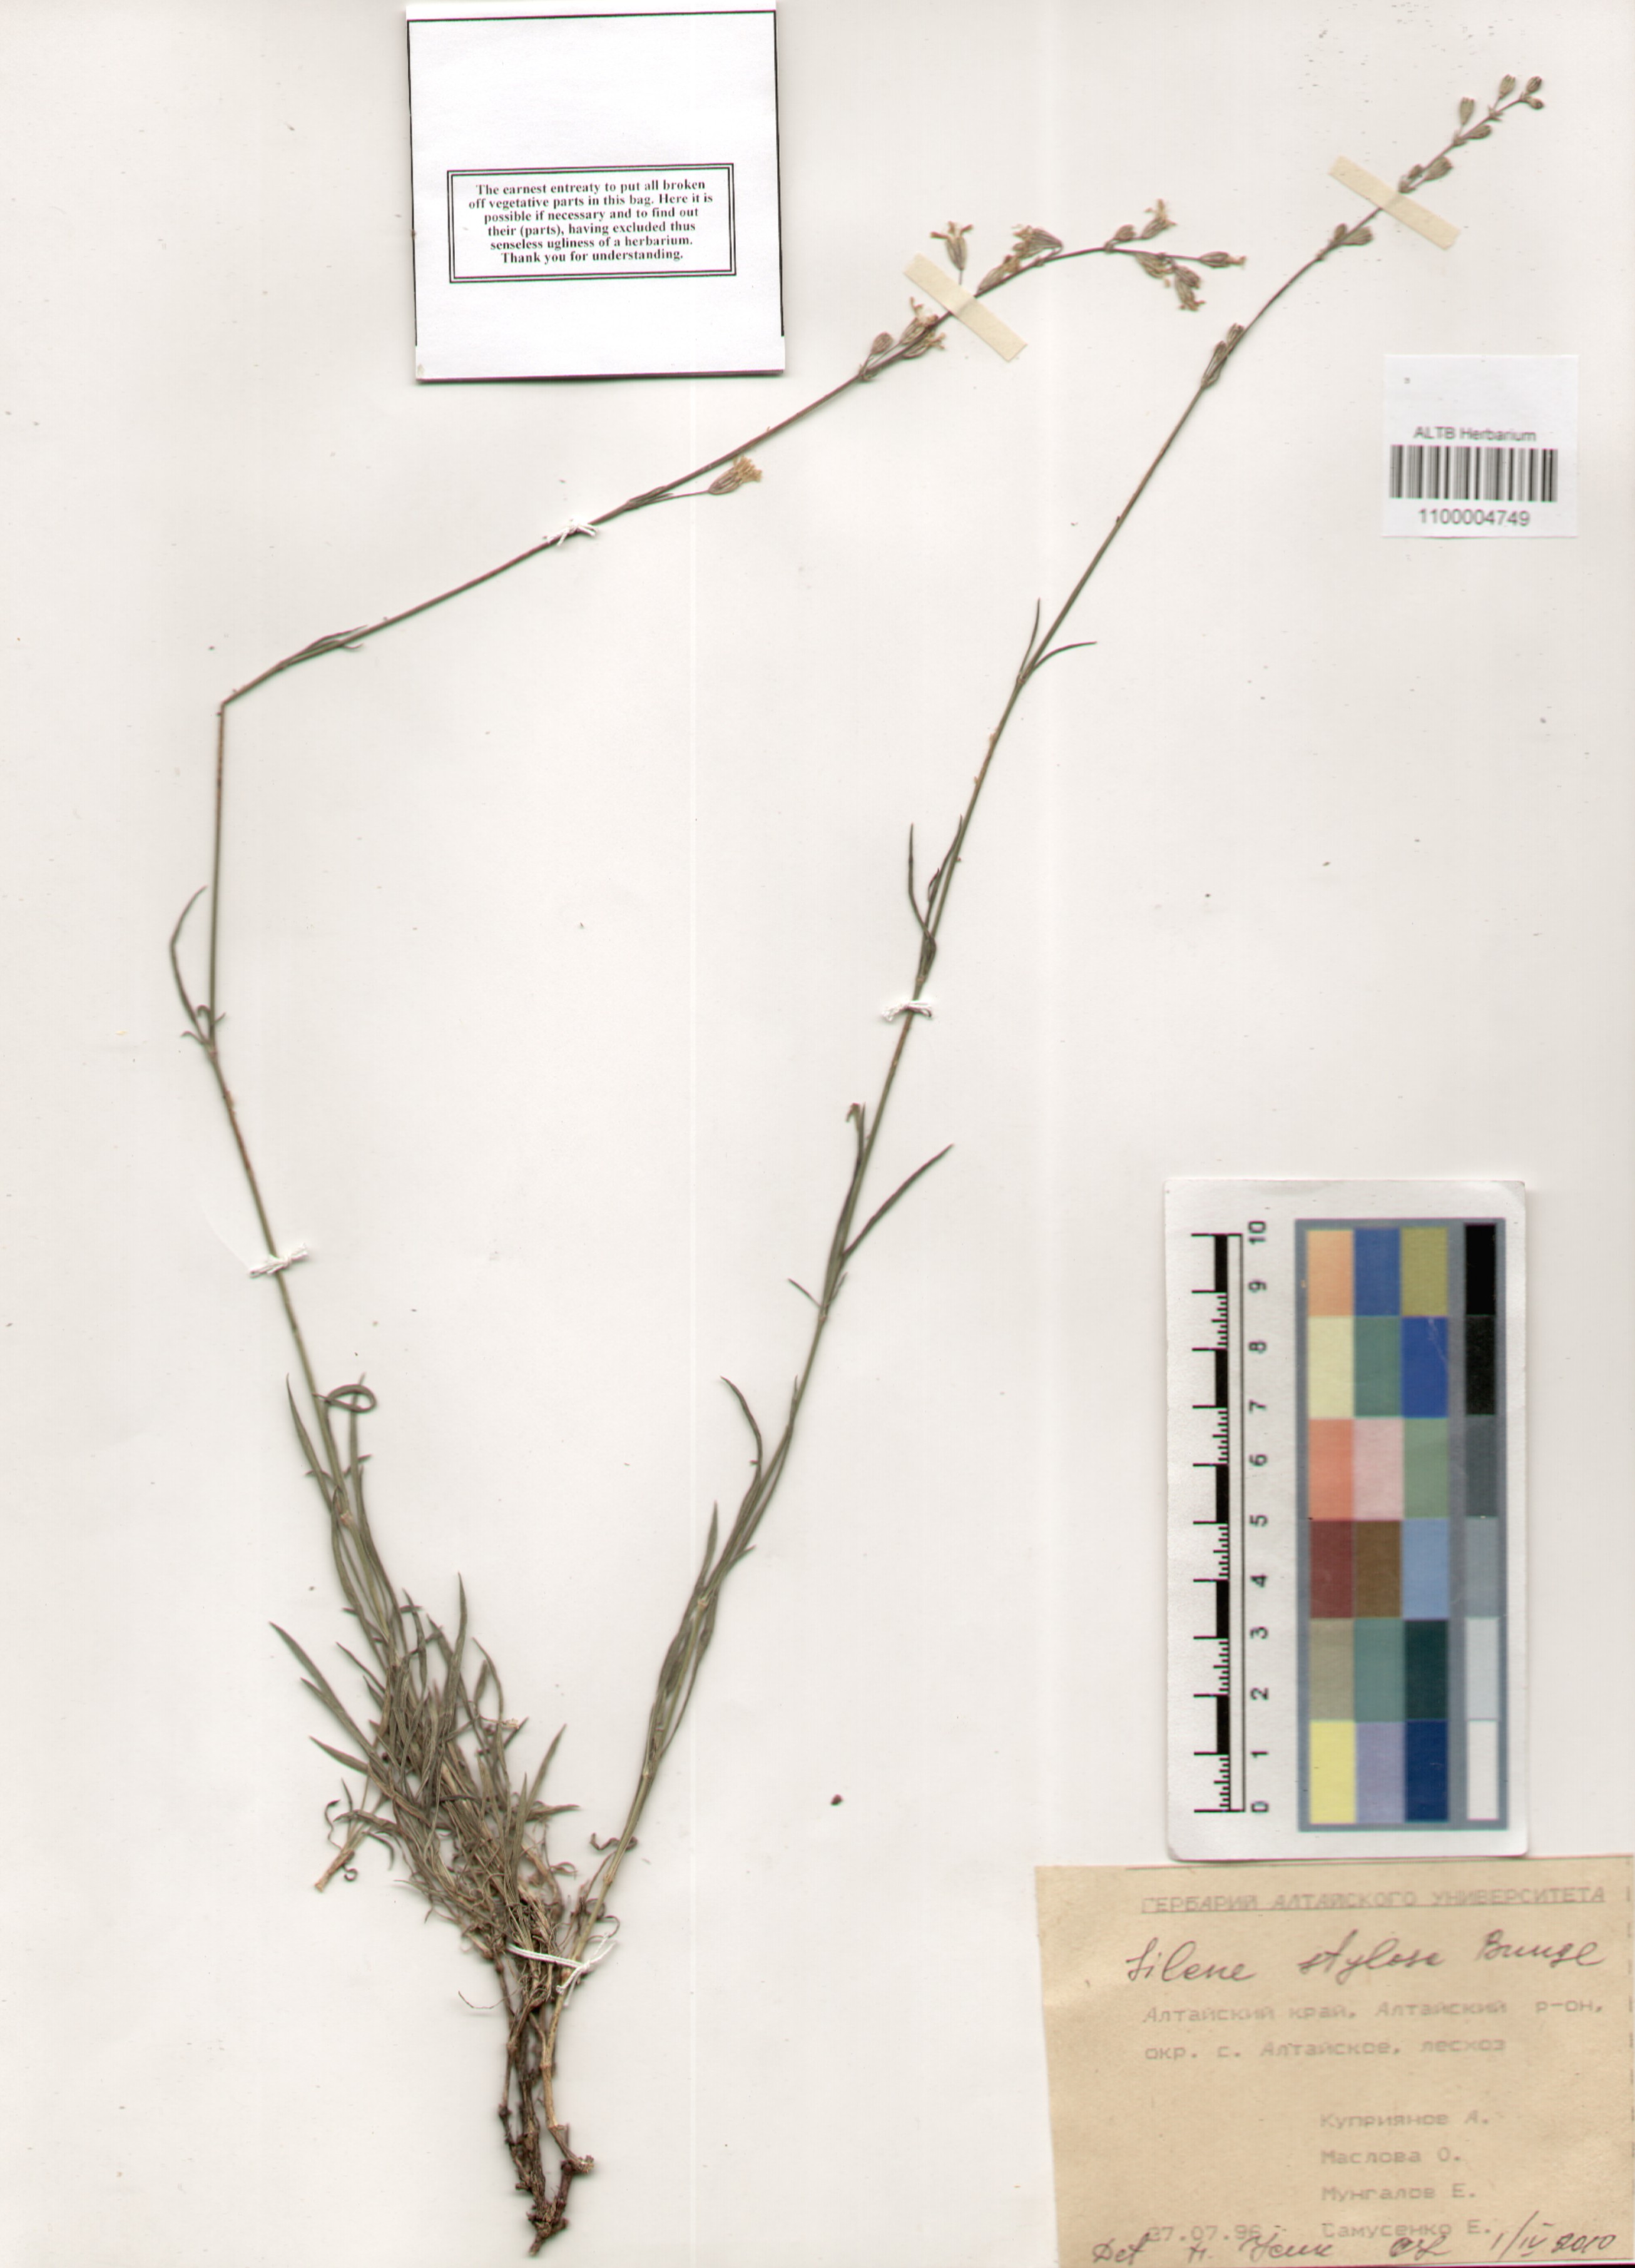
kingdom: Plantae
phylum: Tracheophyta
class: Magnoliopsida
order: Caryophyllales
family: Caryophyllaceae
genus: Silene
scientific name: Silene graminifolia
